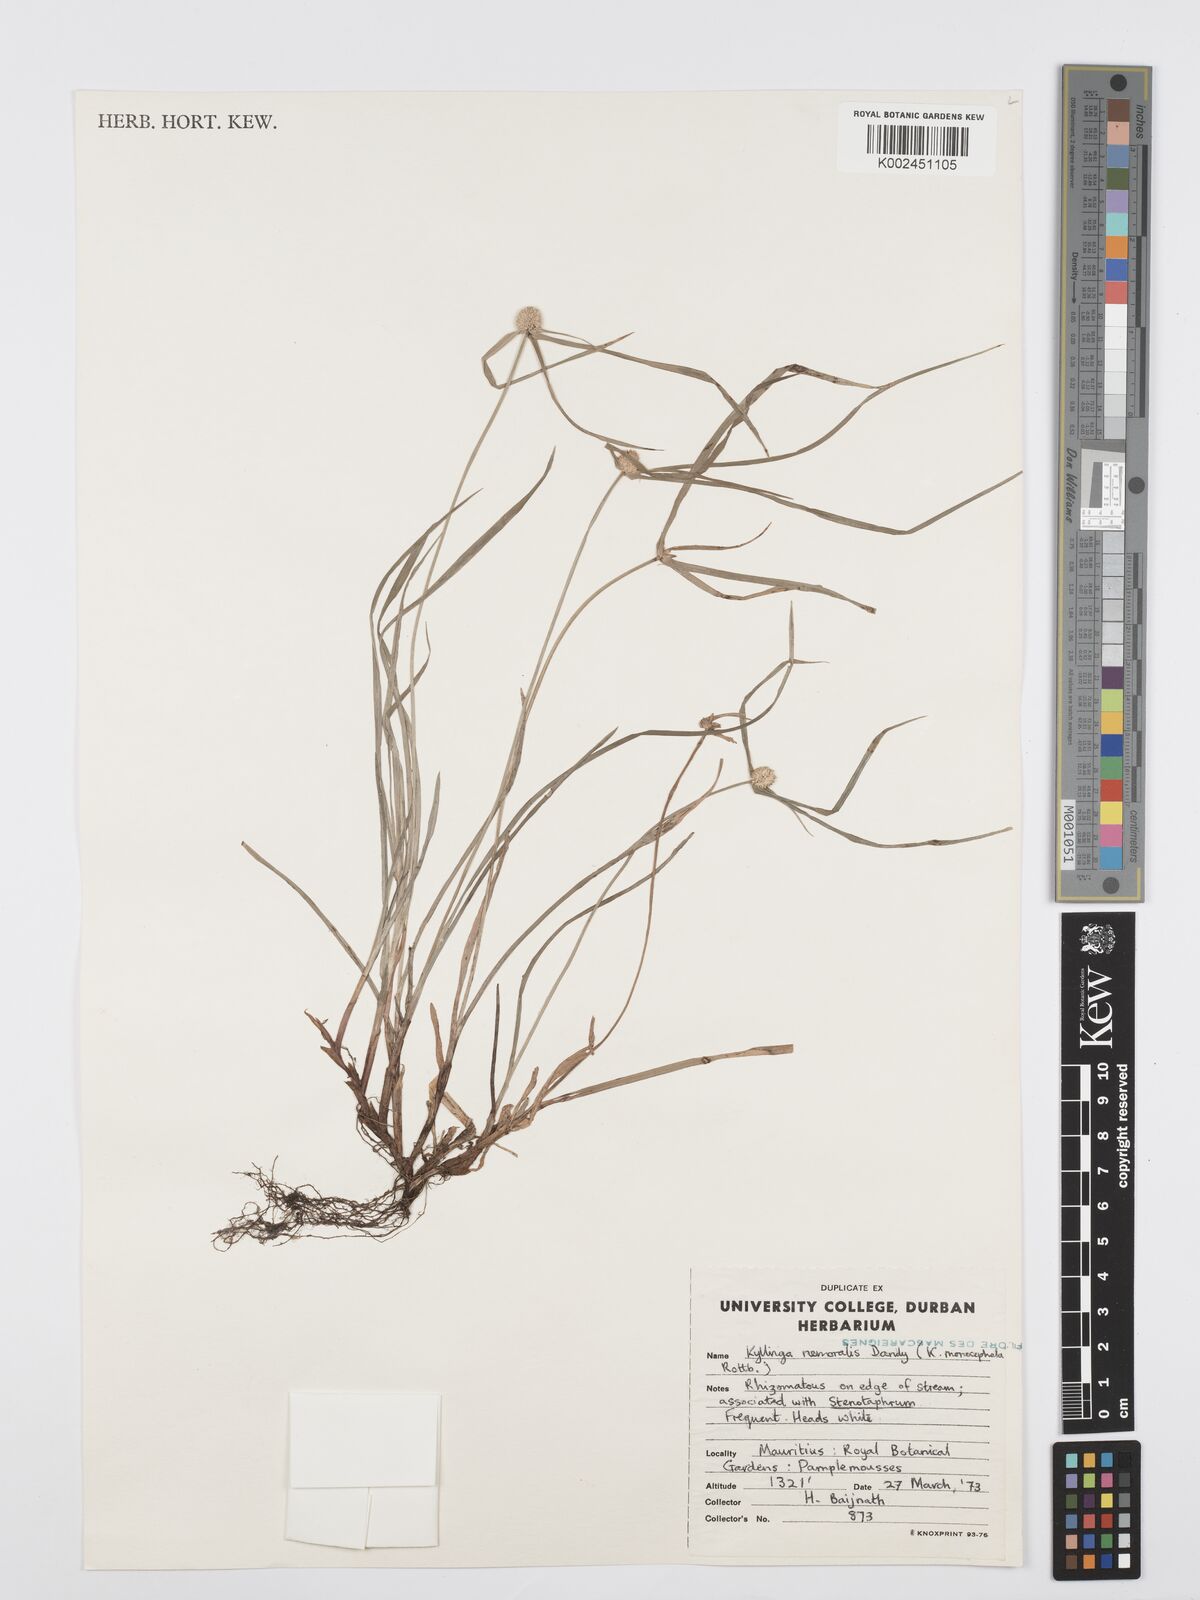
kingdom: Plantae
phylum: Tracheophyta
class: Liliopsida
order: Poales
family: Cyperaceae
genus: Cyperus
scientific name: Cyperus nemoralis
